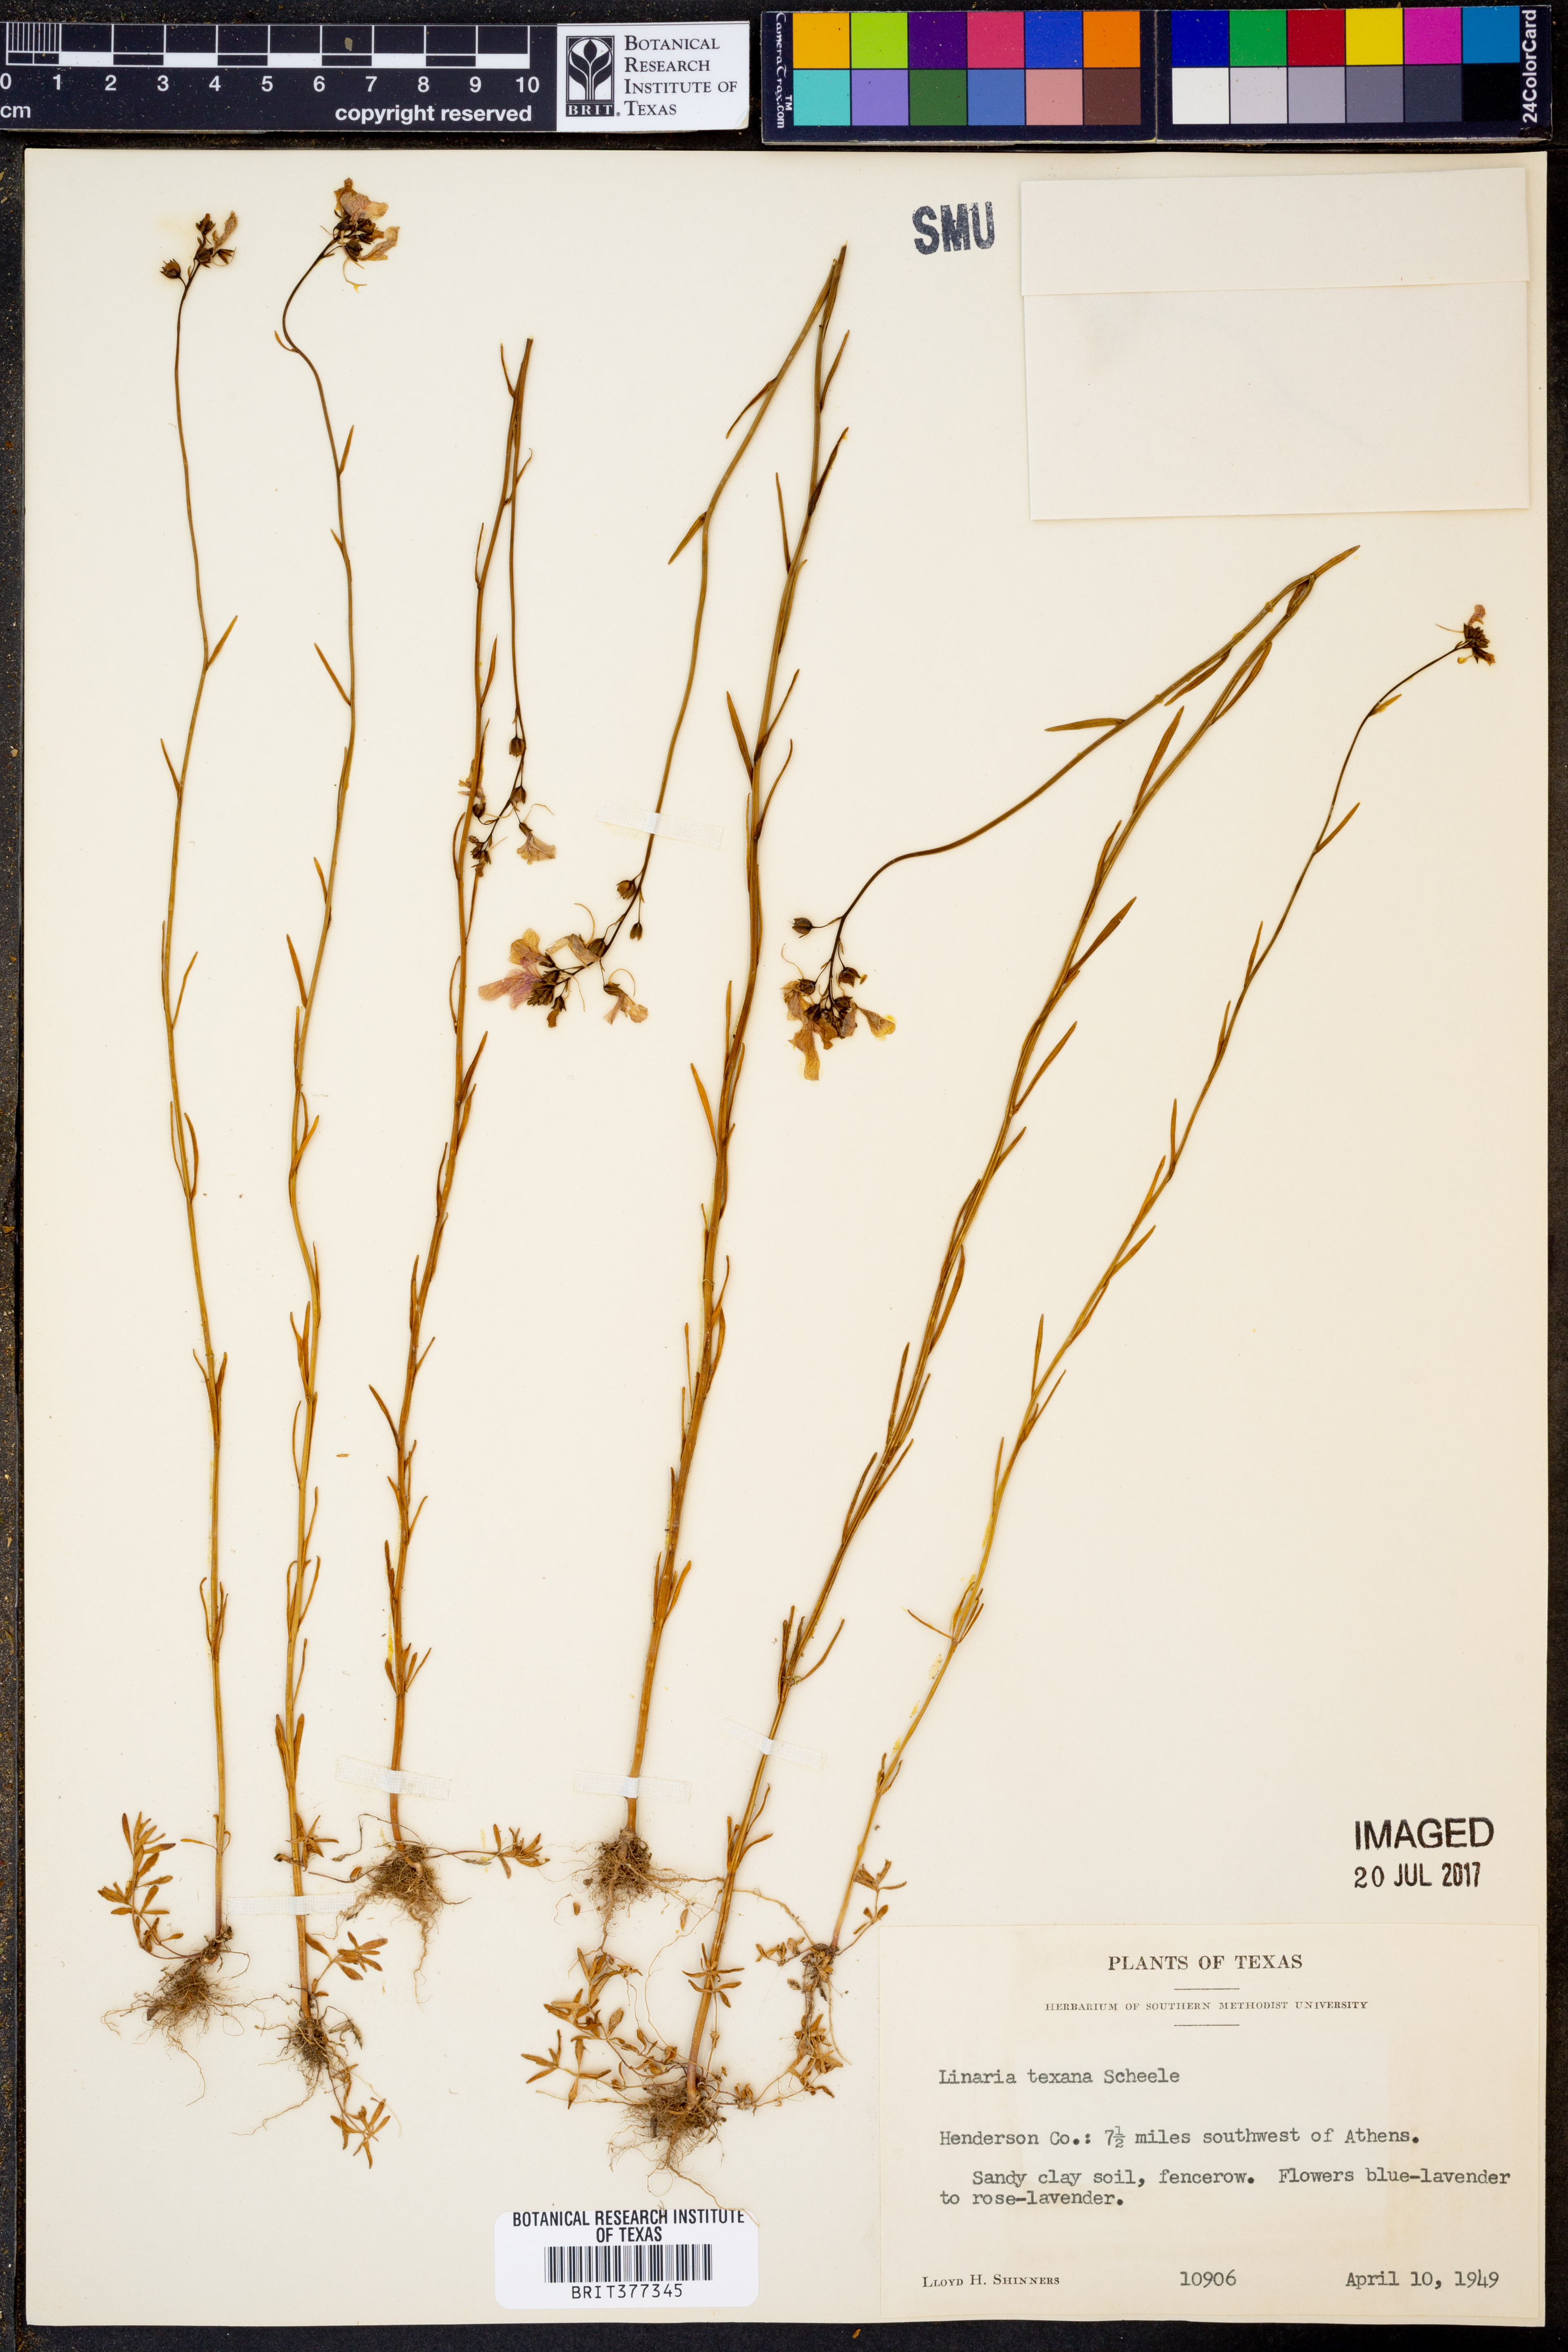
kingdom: Plantae
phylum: Tracheophyta
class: Magnoliopsida
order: Lamiales
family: Plantaginaceae
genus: Nuttallanthus
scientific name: Nuttallanthus texanus
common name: Texas toadflax
